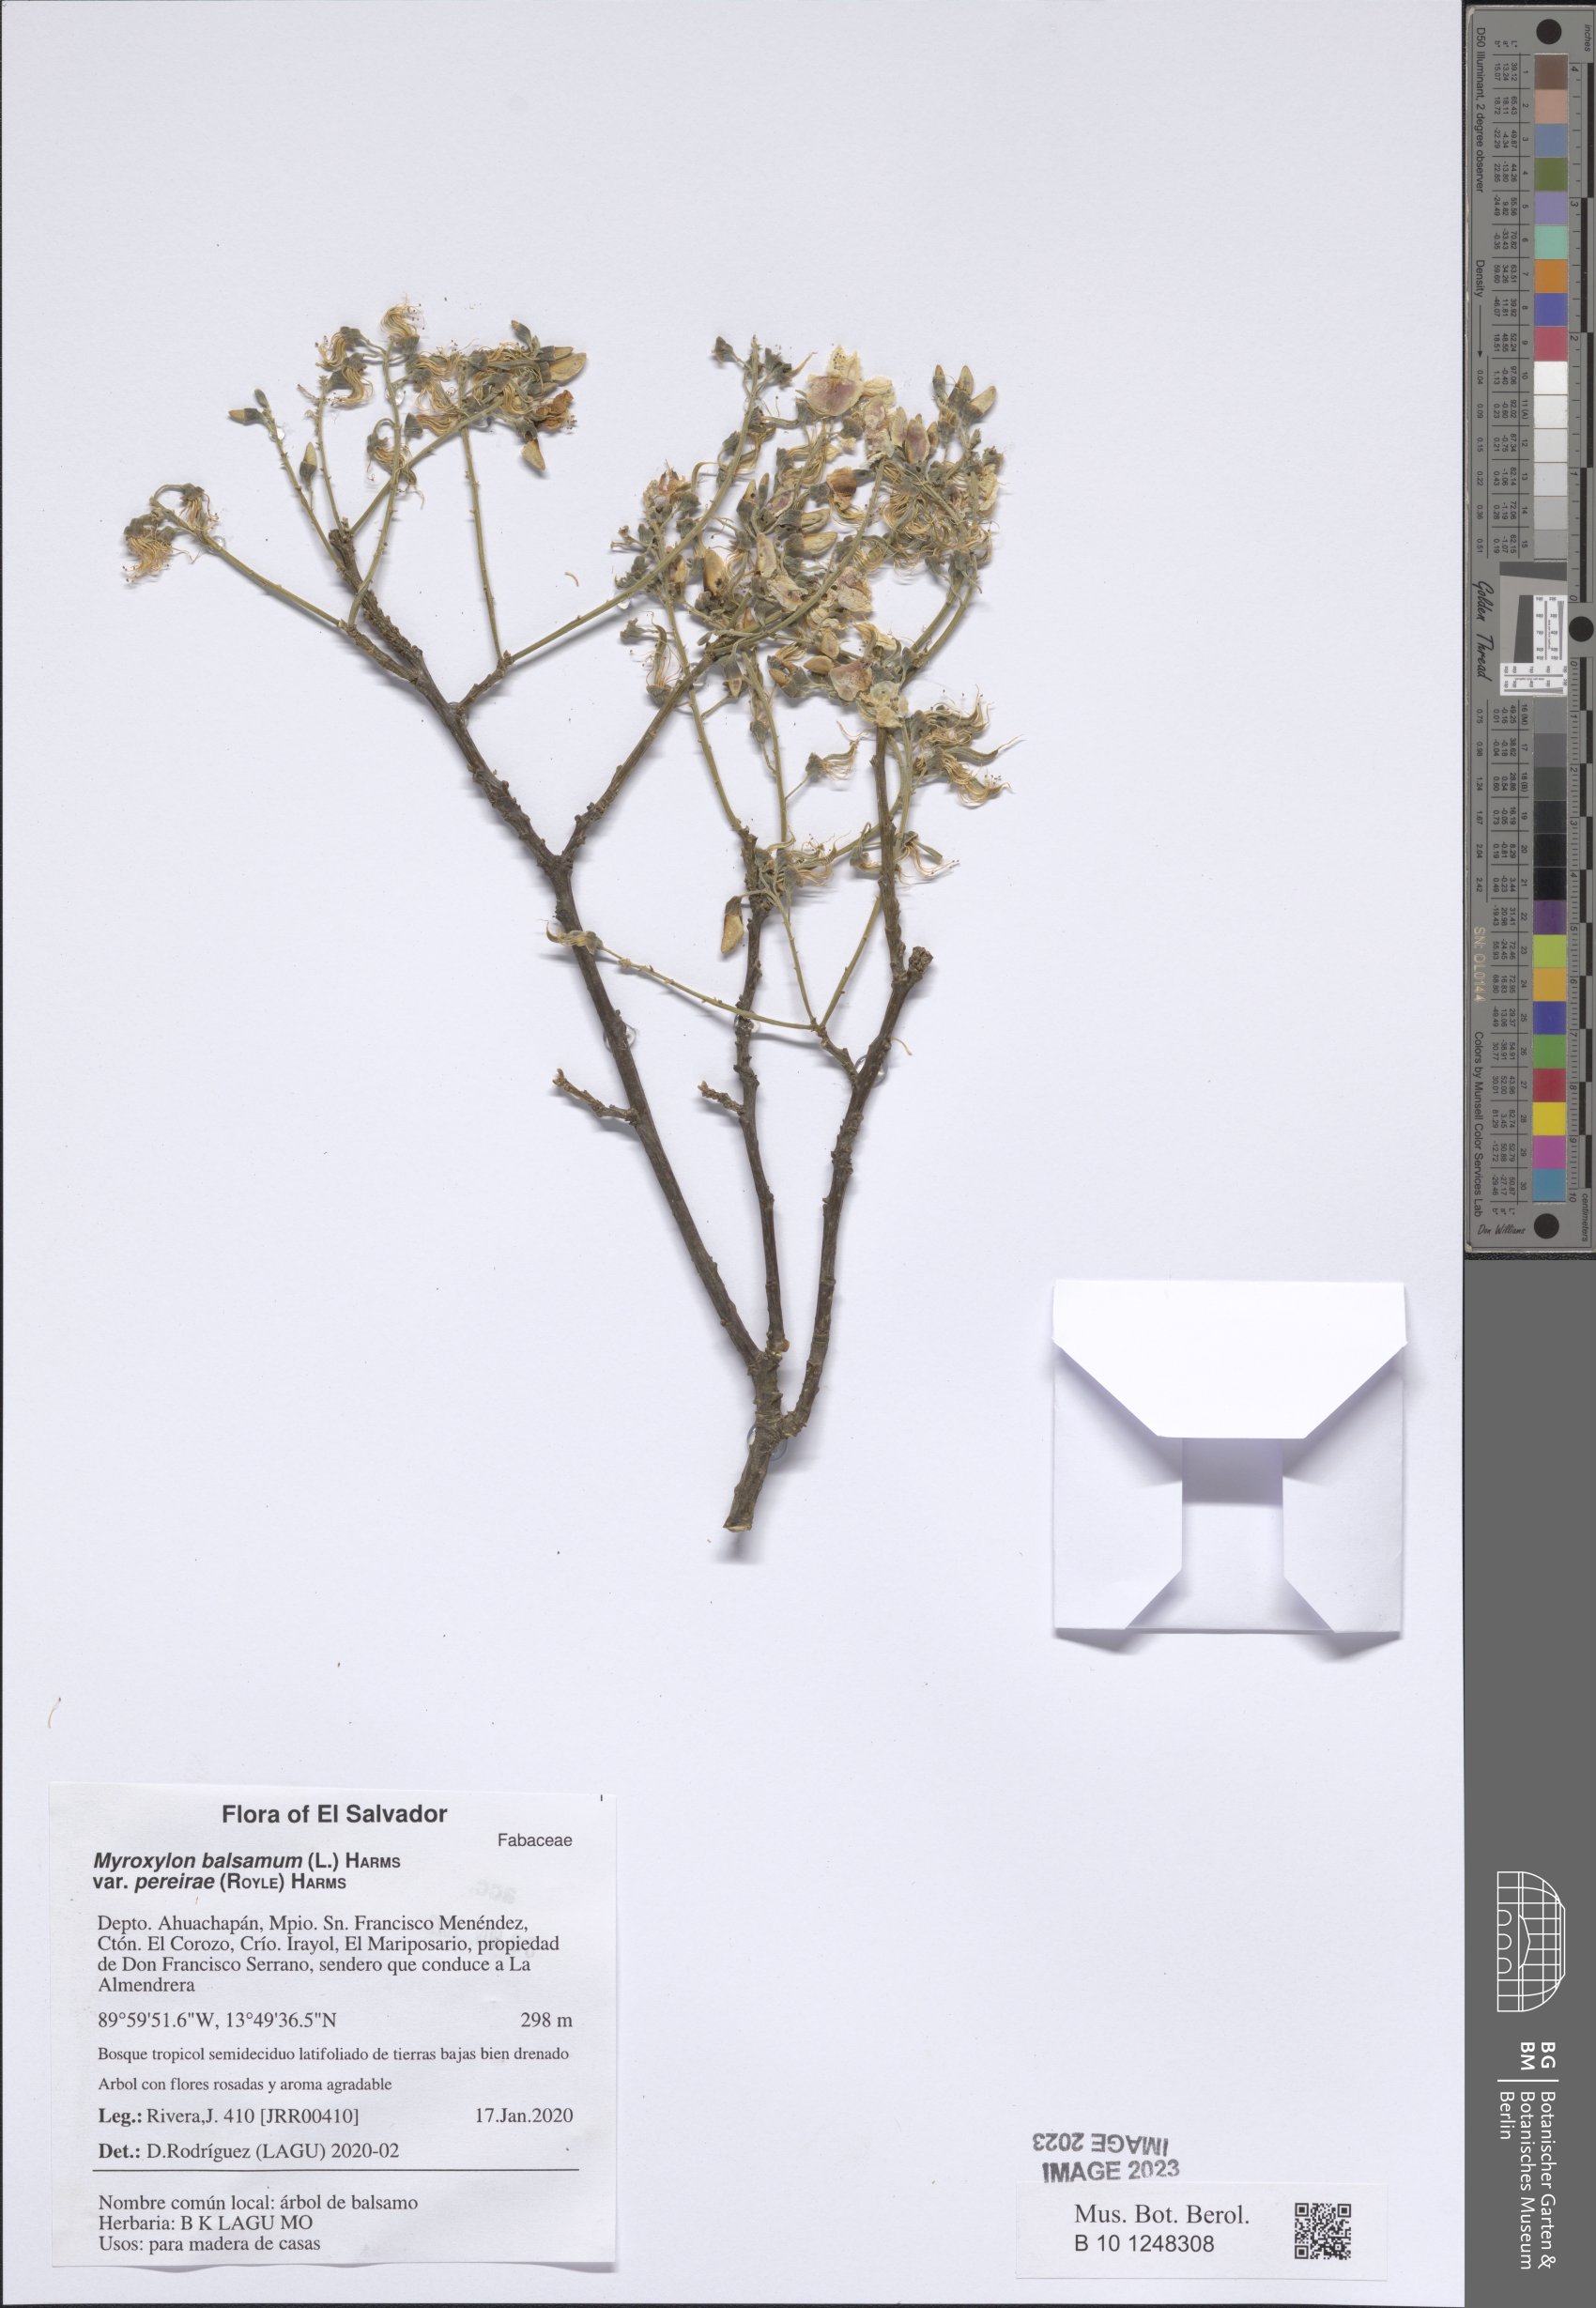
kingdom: Plantae
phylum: Tracheophyta
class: Magnoliopsida
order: Fabales
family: Fabaceae
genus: Myroxylon
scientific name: Myroxylon balsamum
